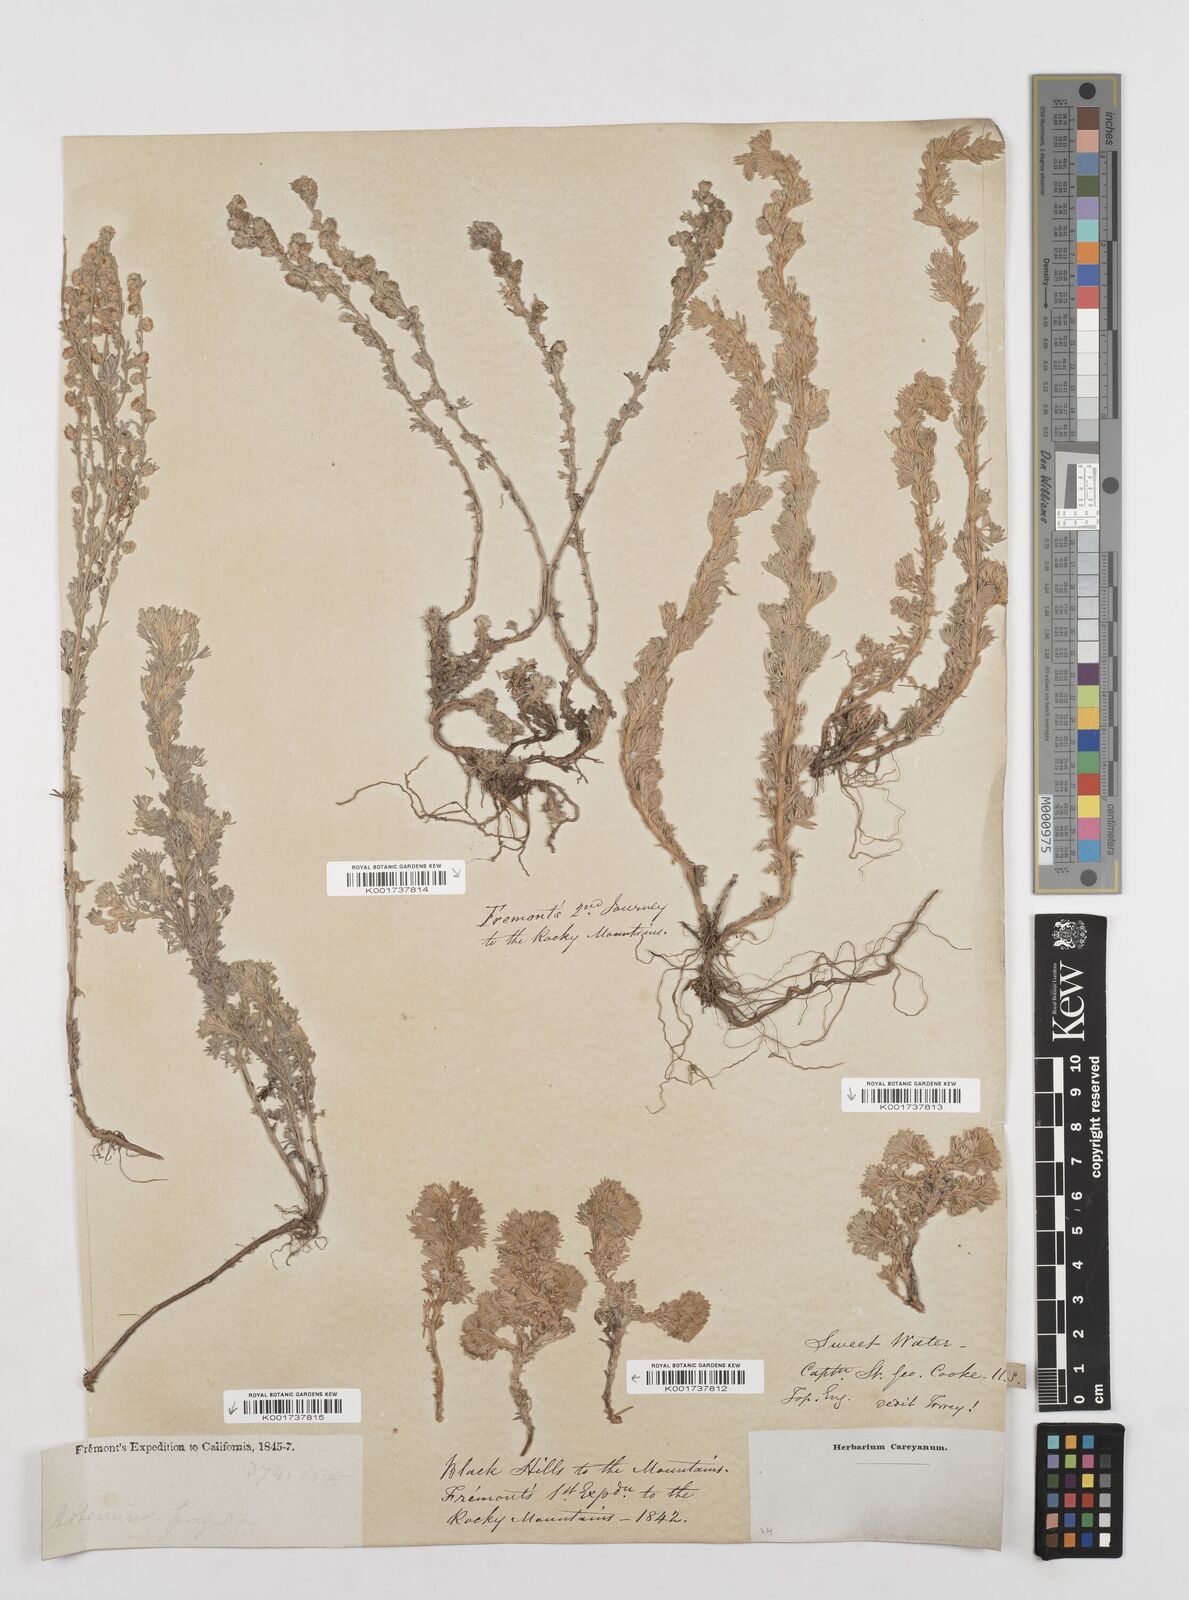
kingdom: Plantae
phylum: Tracheophyta
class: Magnoliopsida
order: Asterales
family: Asteraceae
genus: Artemisia
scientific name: Artemisia frigida
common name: Prairie sagewort
